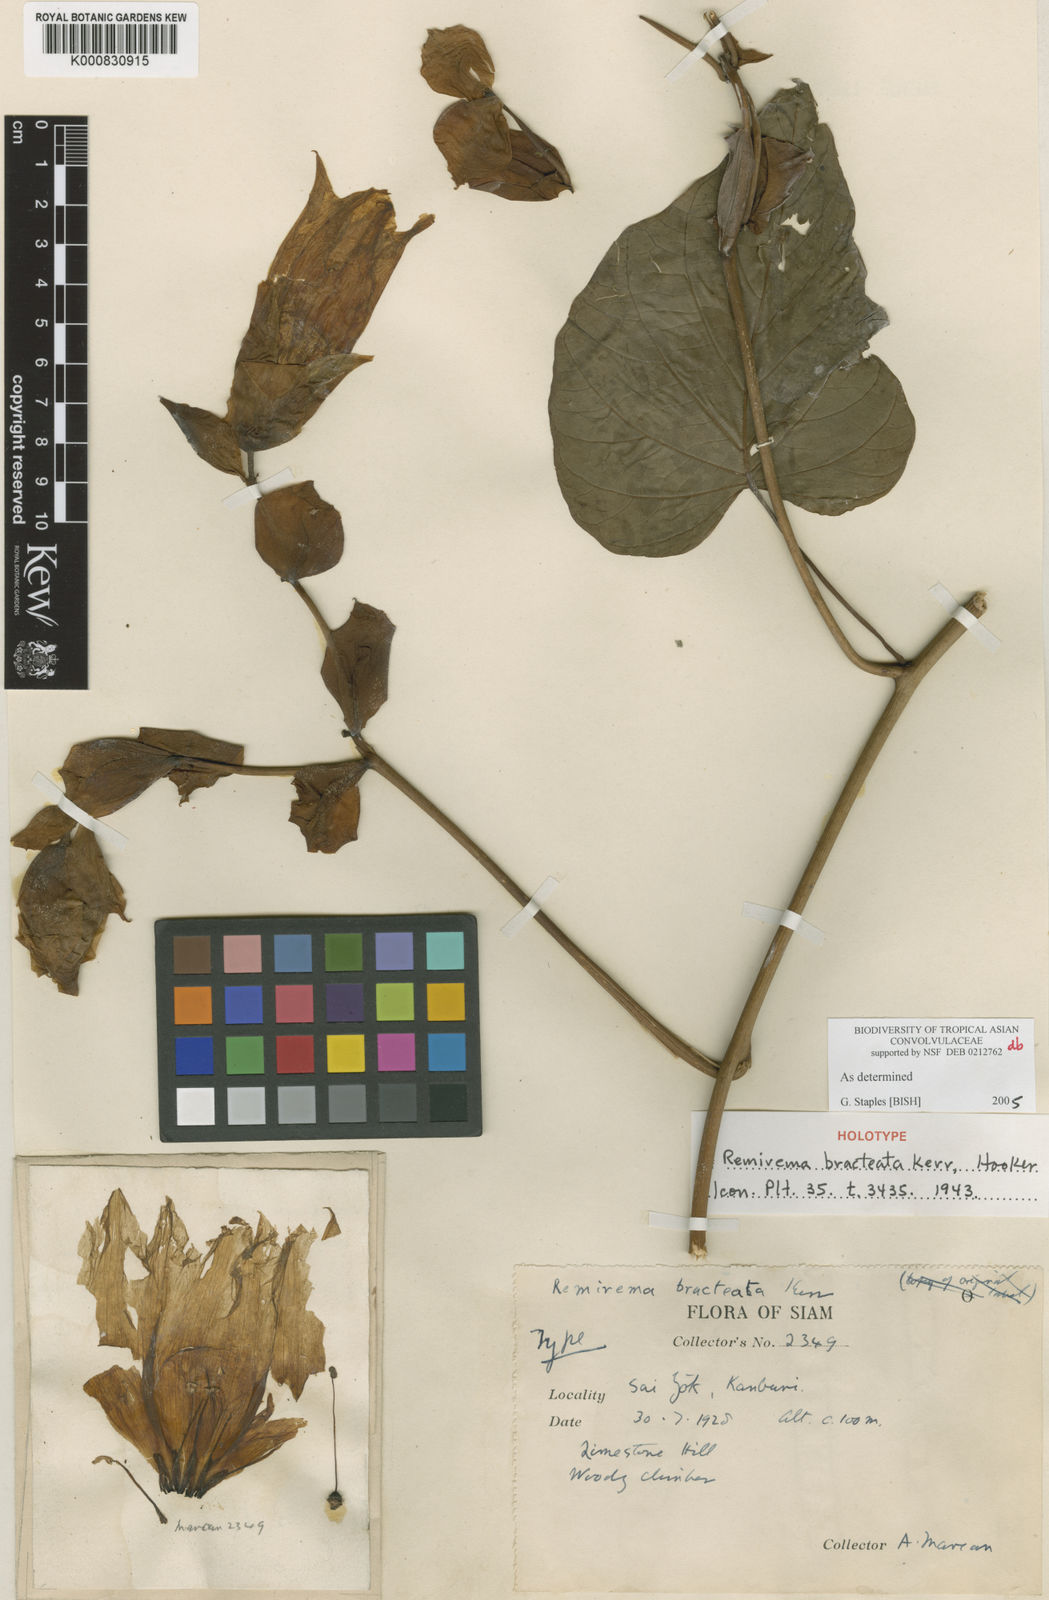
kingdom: Plantae
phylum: Tracheophyta
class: Magnoliopsida
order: Solanales
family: Convolvulaceae
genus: Remirema
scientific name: Remirema bracteata
